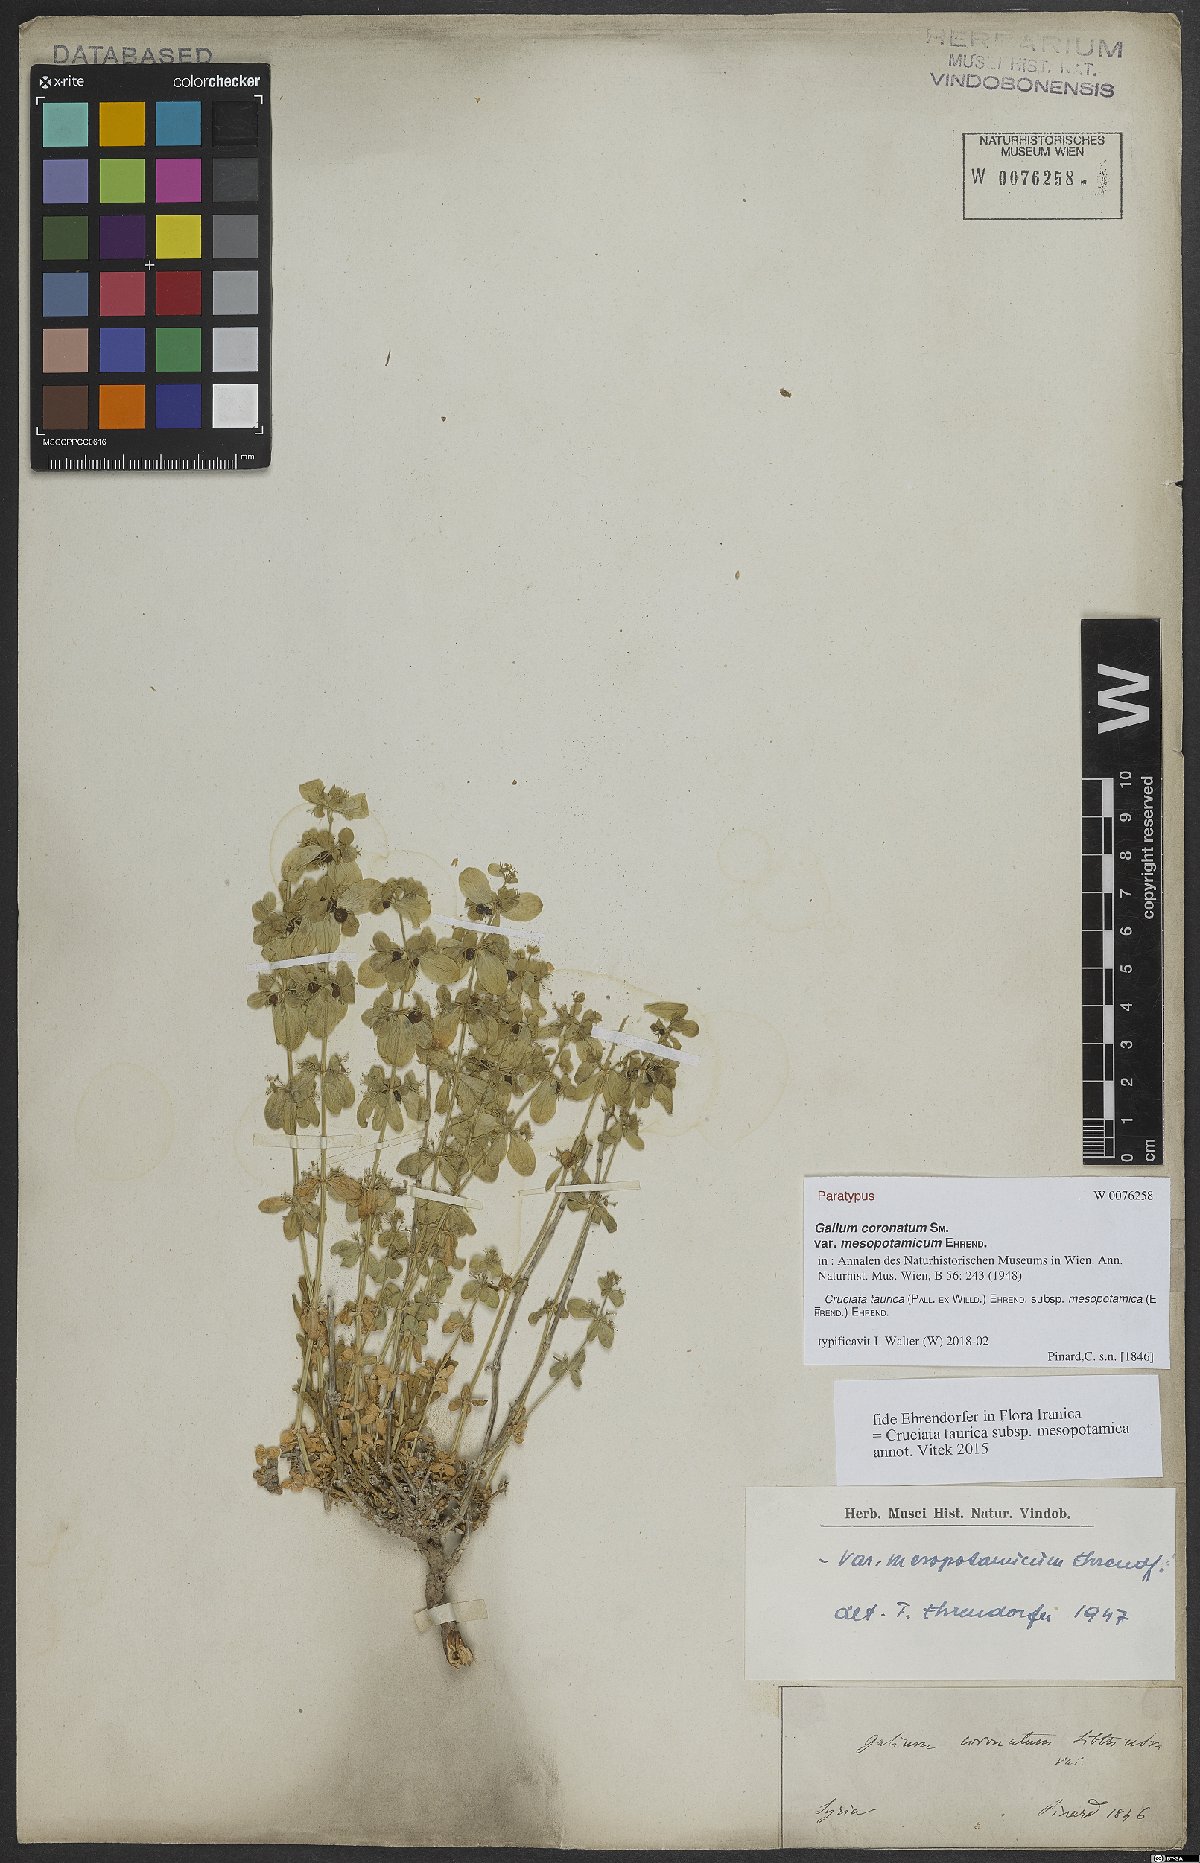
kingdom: Plantae
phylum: Tracheophyta
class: Magnoliopsida
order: Gentianales
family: Rubiaceae
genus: Cruciata
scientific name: Cruciata taurica
